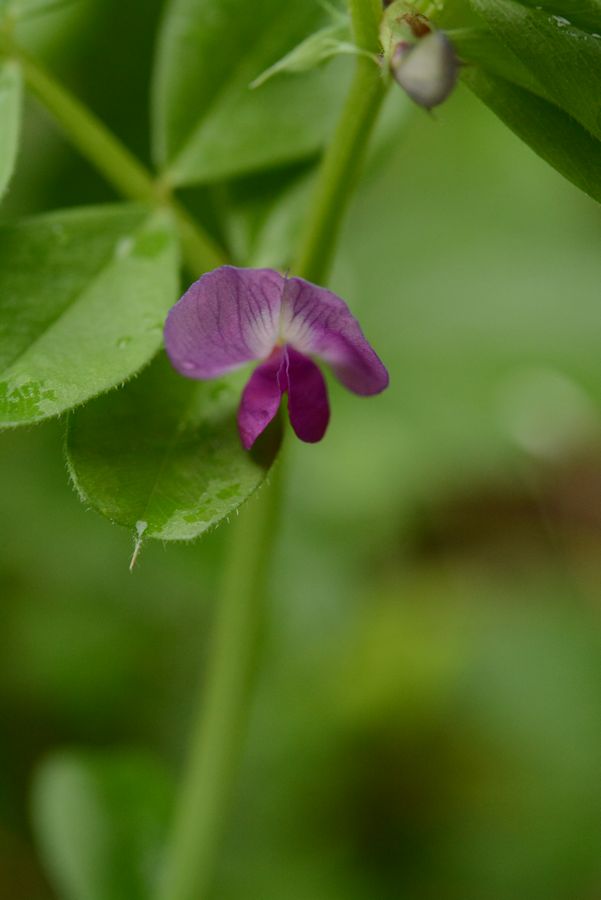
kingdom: Plantae
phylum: Tracheophyta
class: Magnoliopsida
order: Fabales
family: Fabaceae
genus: Vicia
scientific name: Vicia sativa
